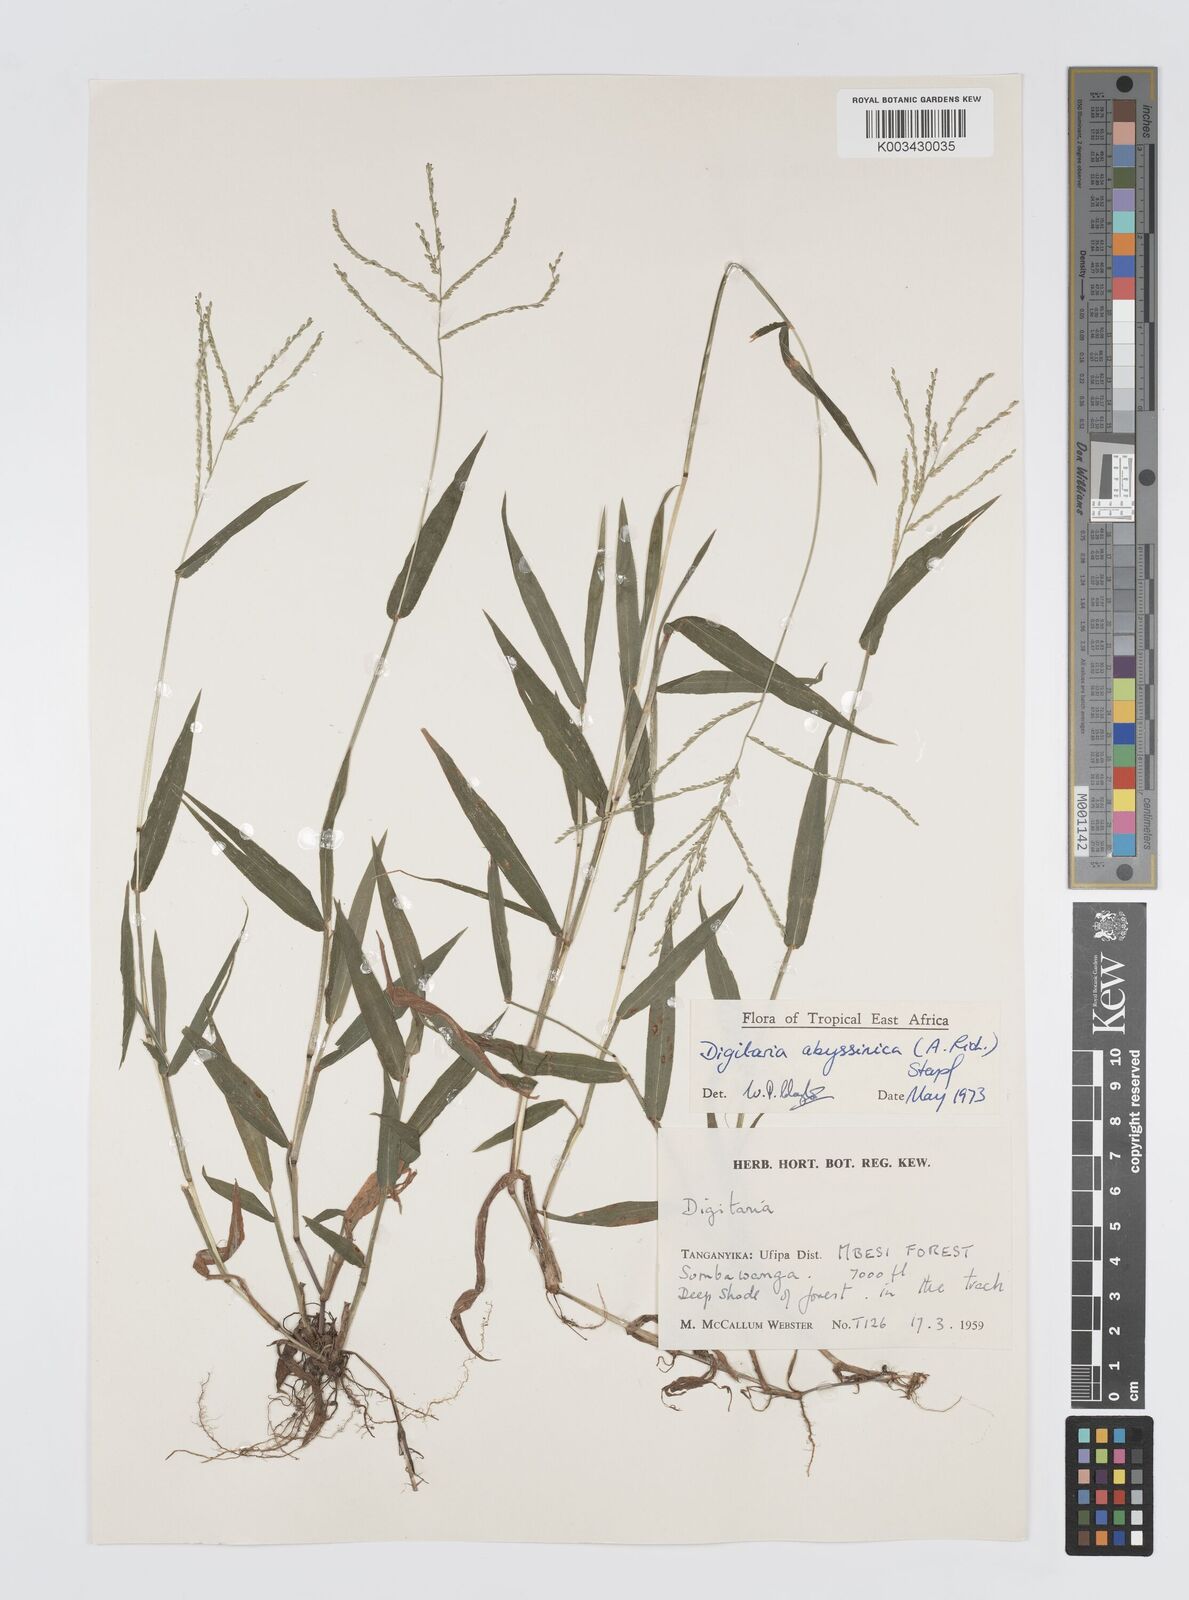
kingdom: Plantae
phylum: Tracheophyta
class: Liliopsida
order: Poales
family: Poaceae
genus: Digitaria
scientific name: Digitaria abyssinica
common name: African couchgrass
